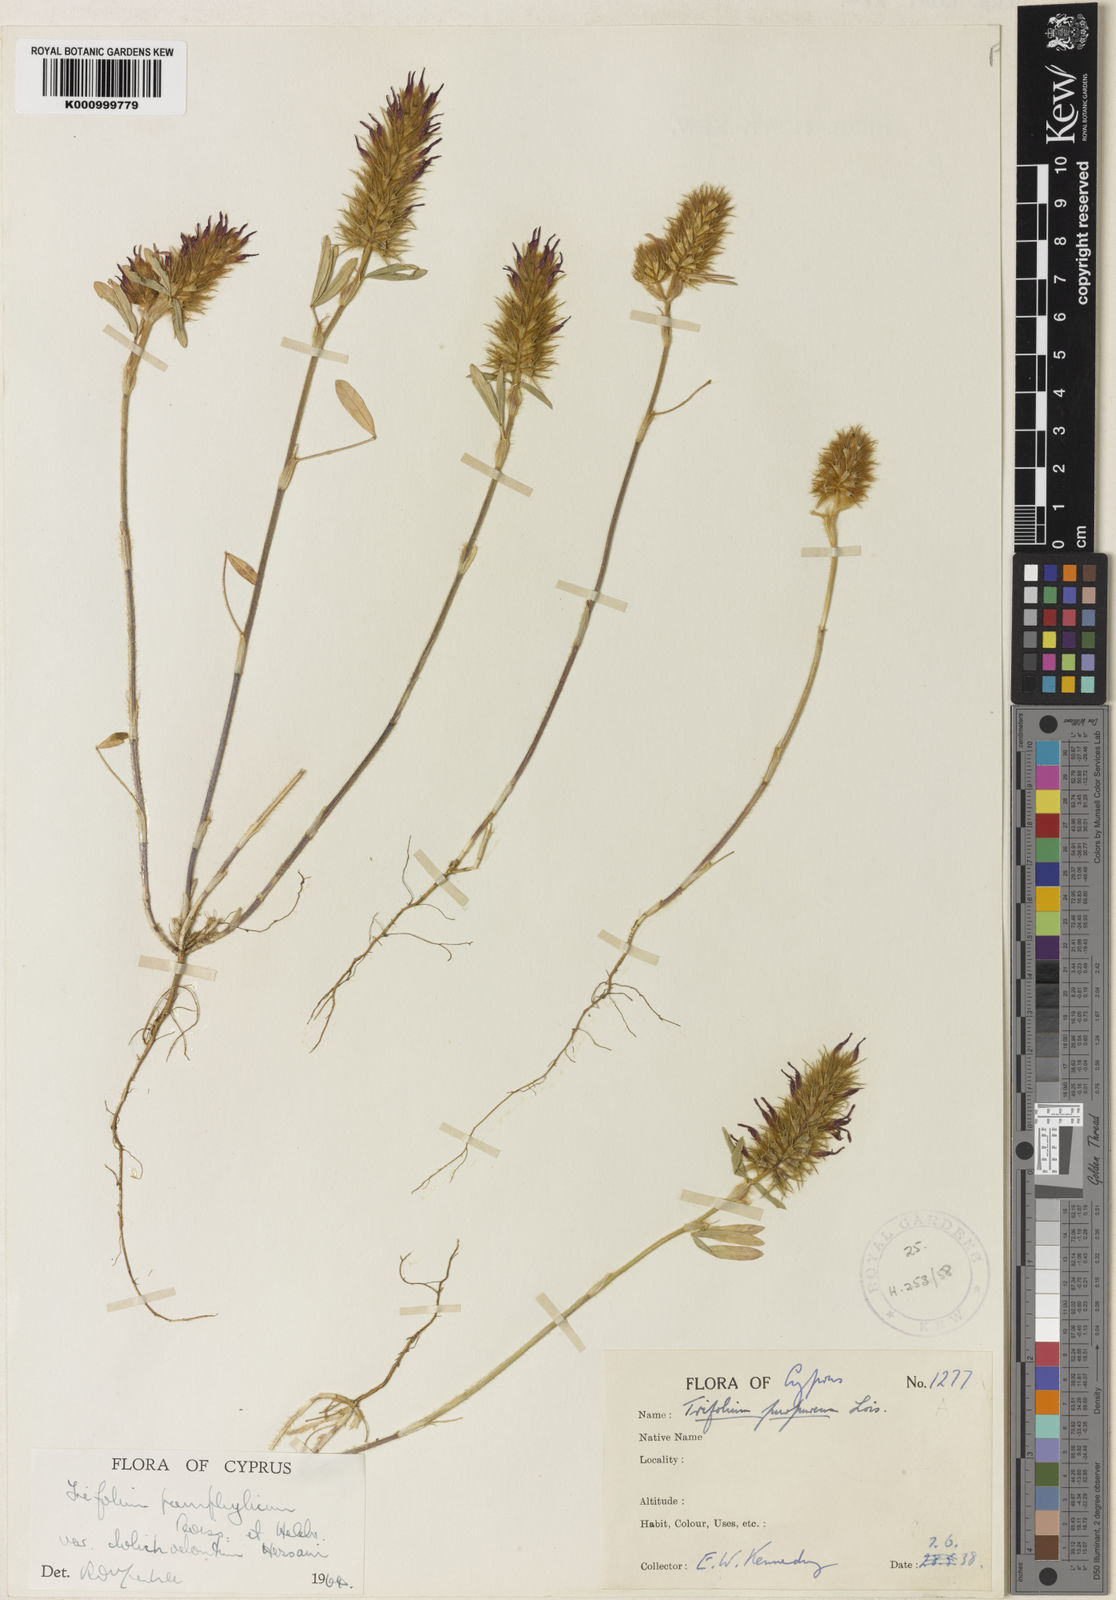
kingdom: Plantae
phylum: Tracheophyta
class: Magnoliopsida
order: Fabales
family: Fabaceae
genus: Trifolium
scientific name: Trifolium pamphylicum
